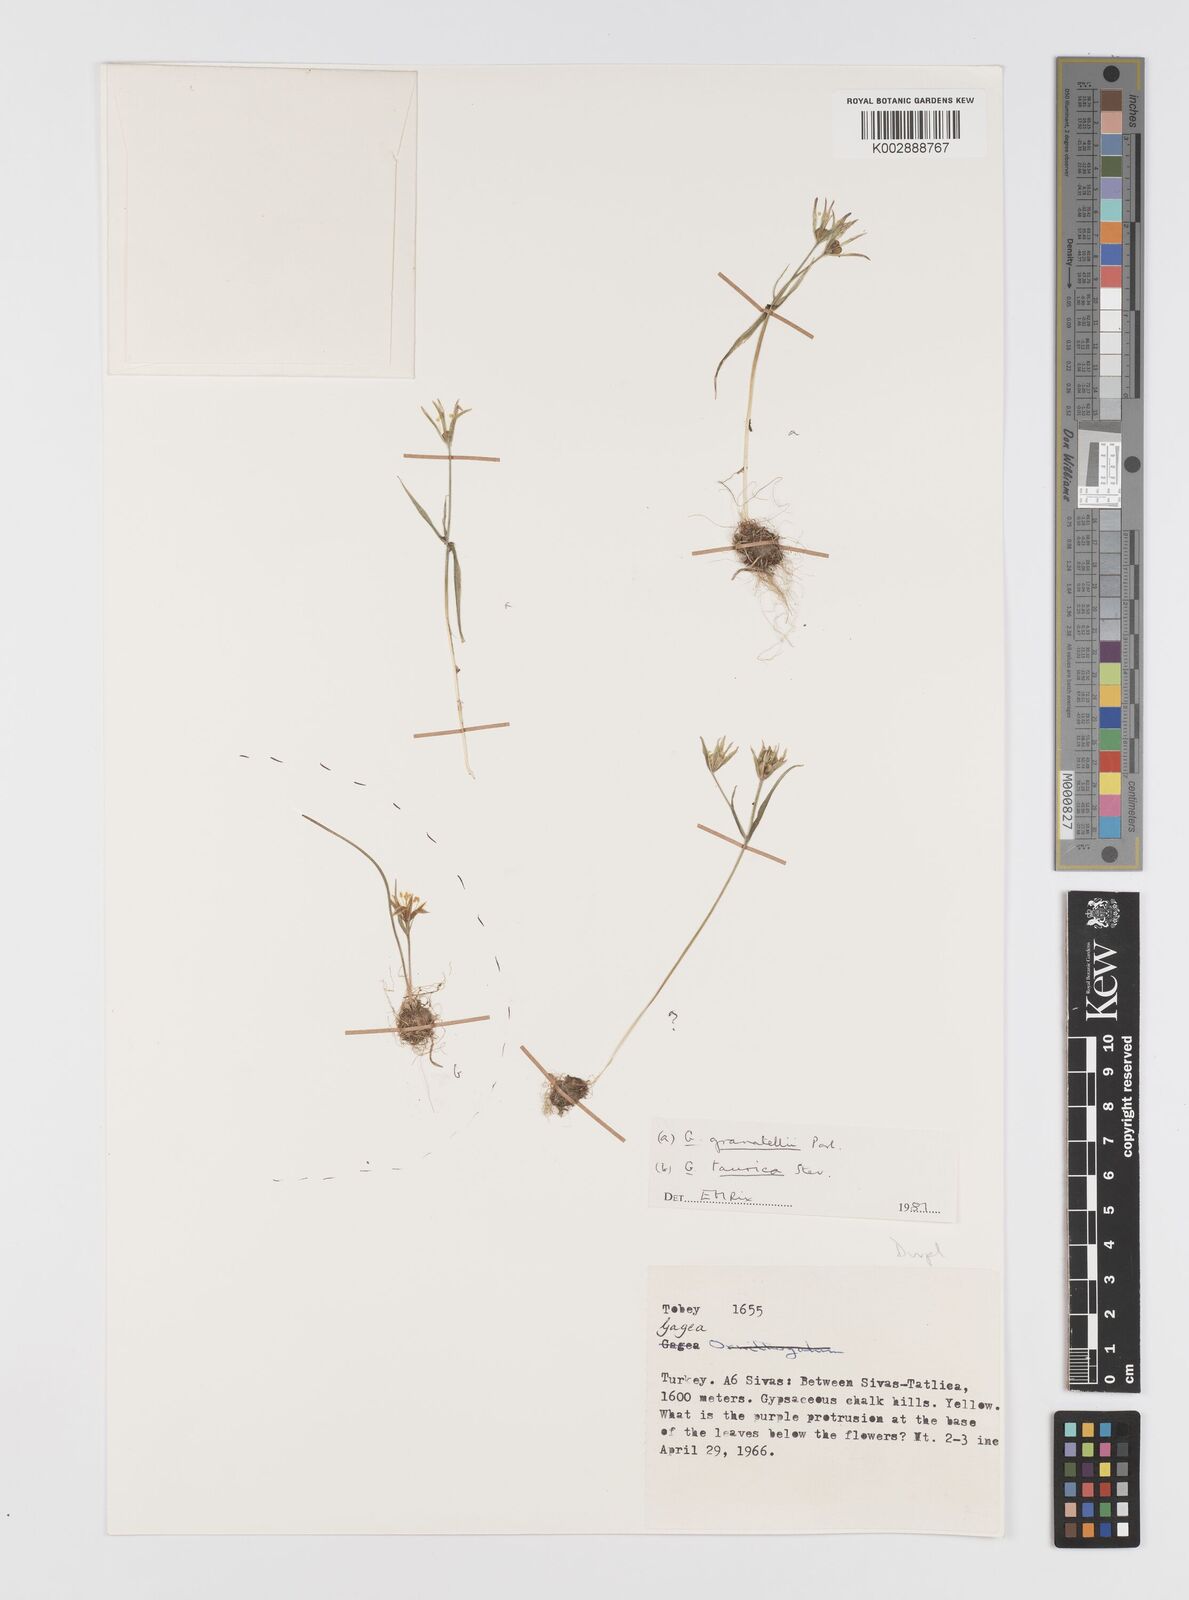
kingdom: Plantae
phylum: Tracheophyta
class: Liliopsida
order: Liliales
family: Liliaceae
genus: Gagea
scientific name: Gagea granatellii
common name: Granatelli’s gagea
